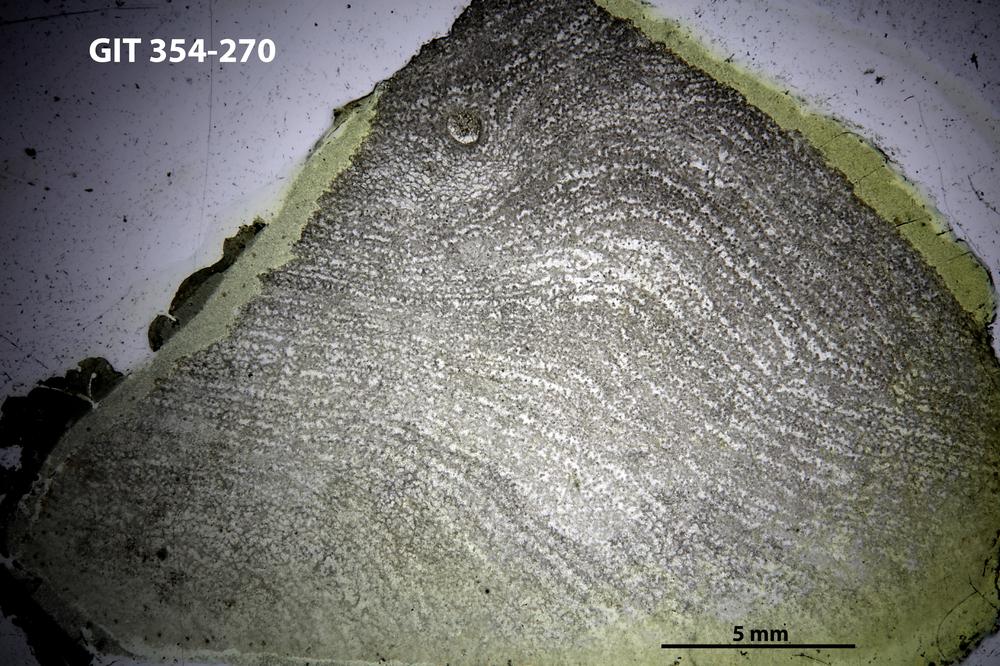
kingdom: Animalia
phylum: Porifera
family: Clathrodictyidae
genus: Clathrodictyon
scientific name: Clathrodictyon lennuki
